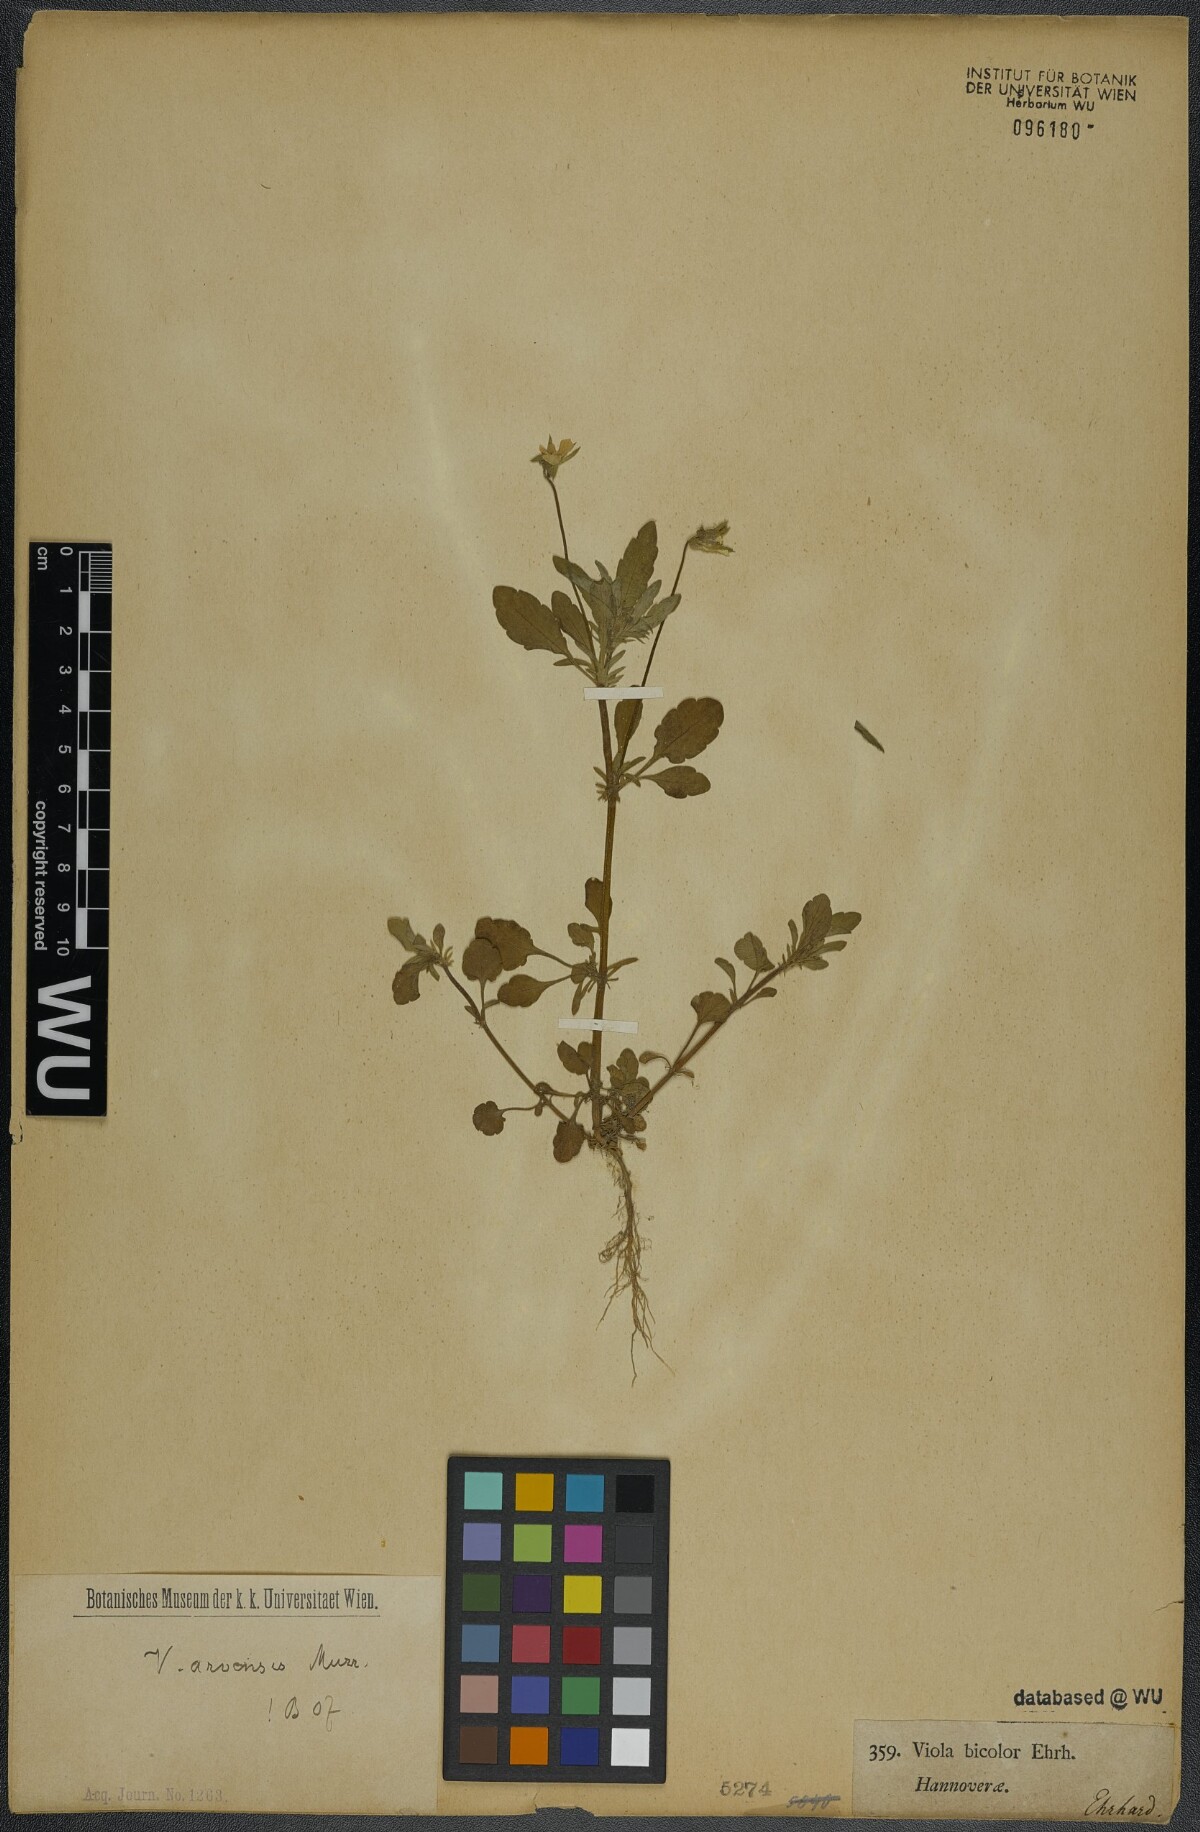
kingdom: Plantae
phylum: Tracheophyta
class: Magnoliopsida
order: Malpighiales
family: Violaceae
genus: Viola
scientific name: Viola arvensis
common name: Field pansy
